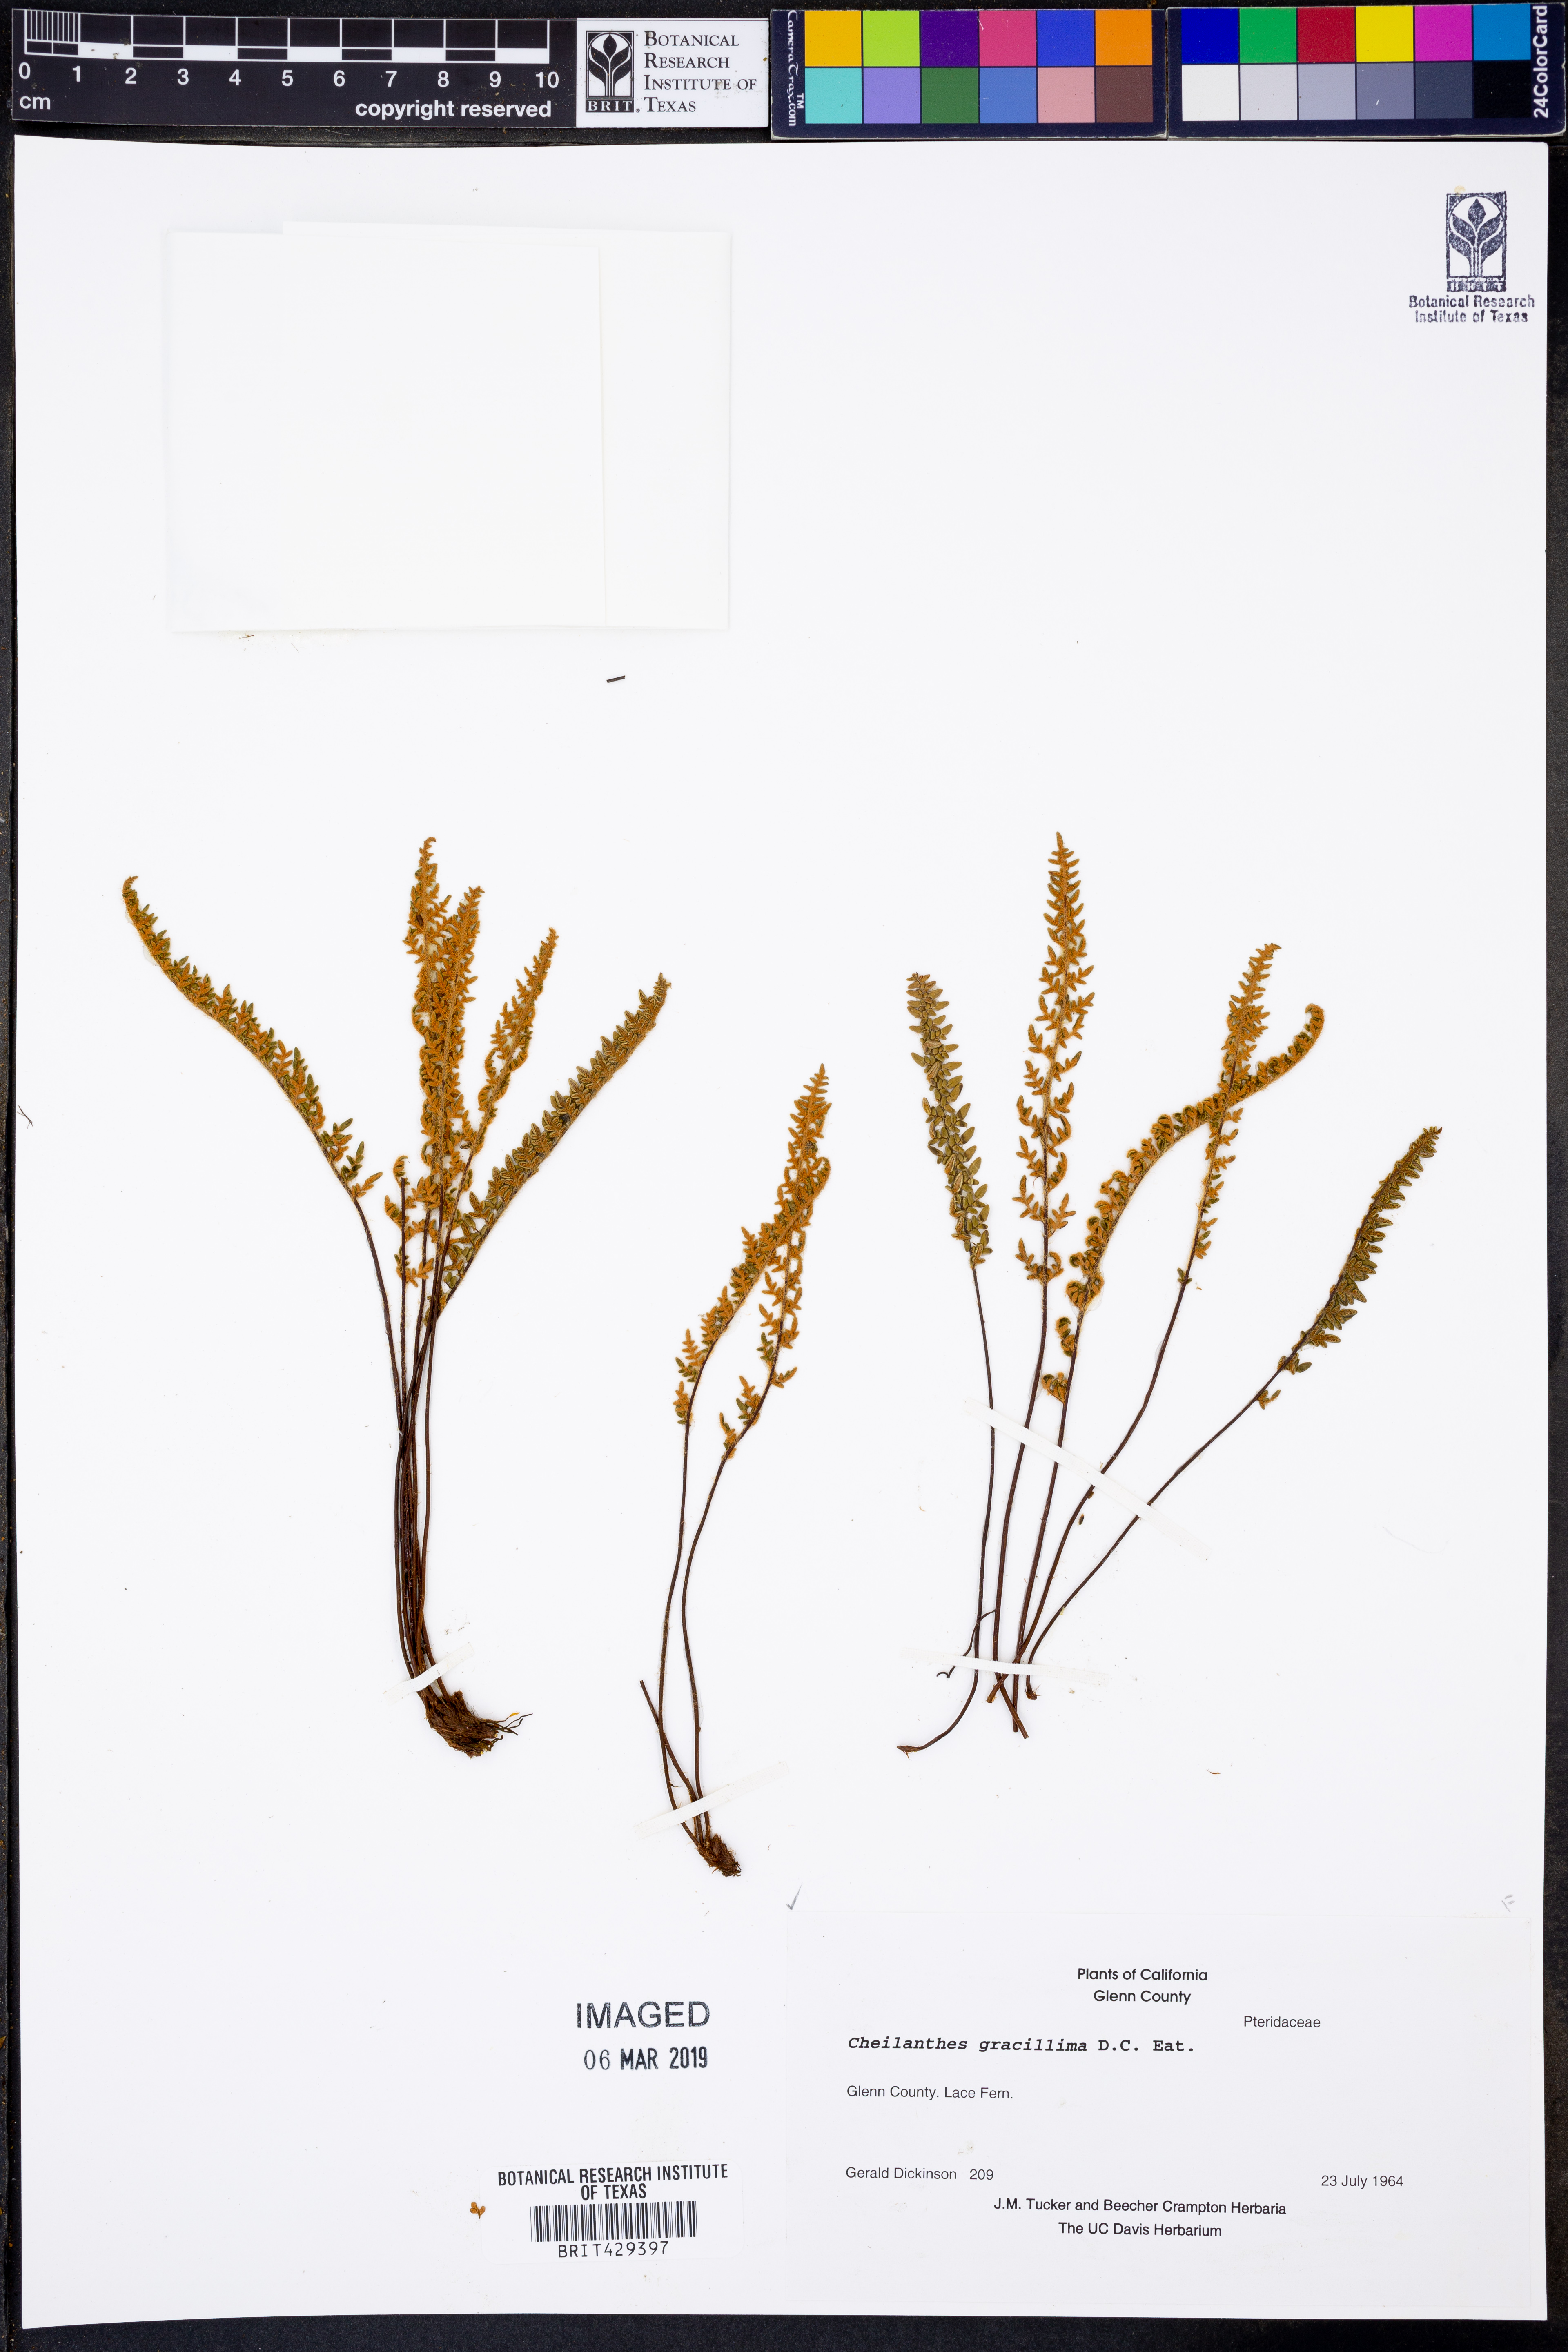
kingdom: Plantae
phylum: Tracheophyta
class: Polypodiopsida
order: Polypodiales
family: Pteridaceae
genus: Myriopteris
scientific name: Myriopteris gracillima
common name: Lace fern
